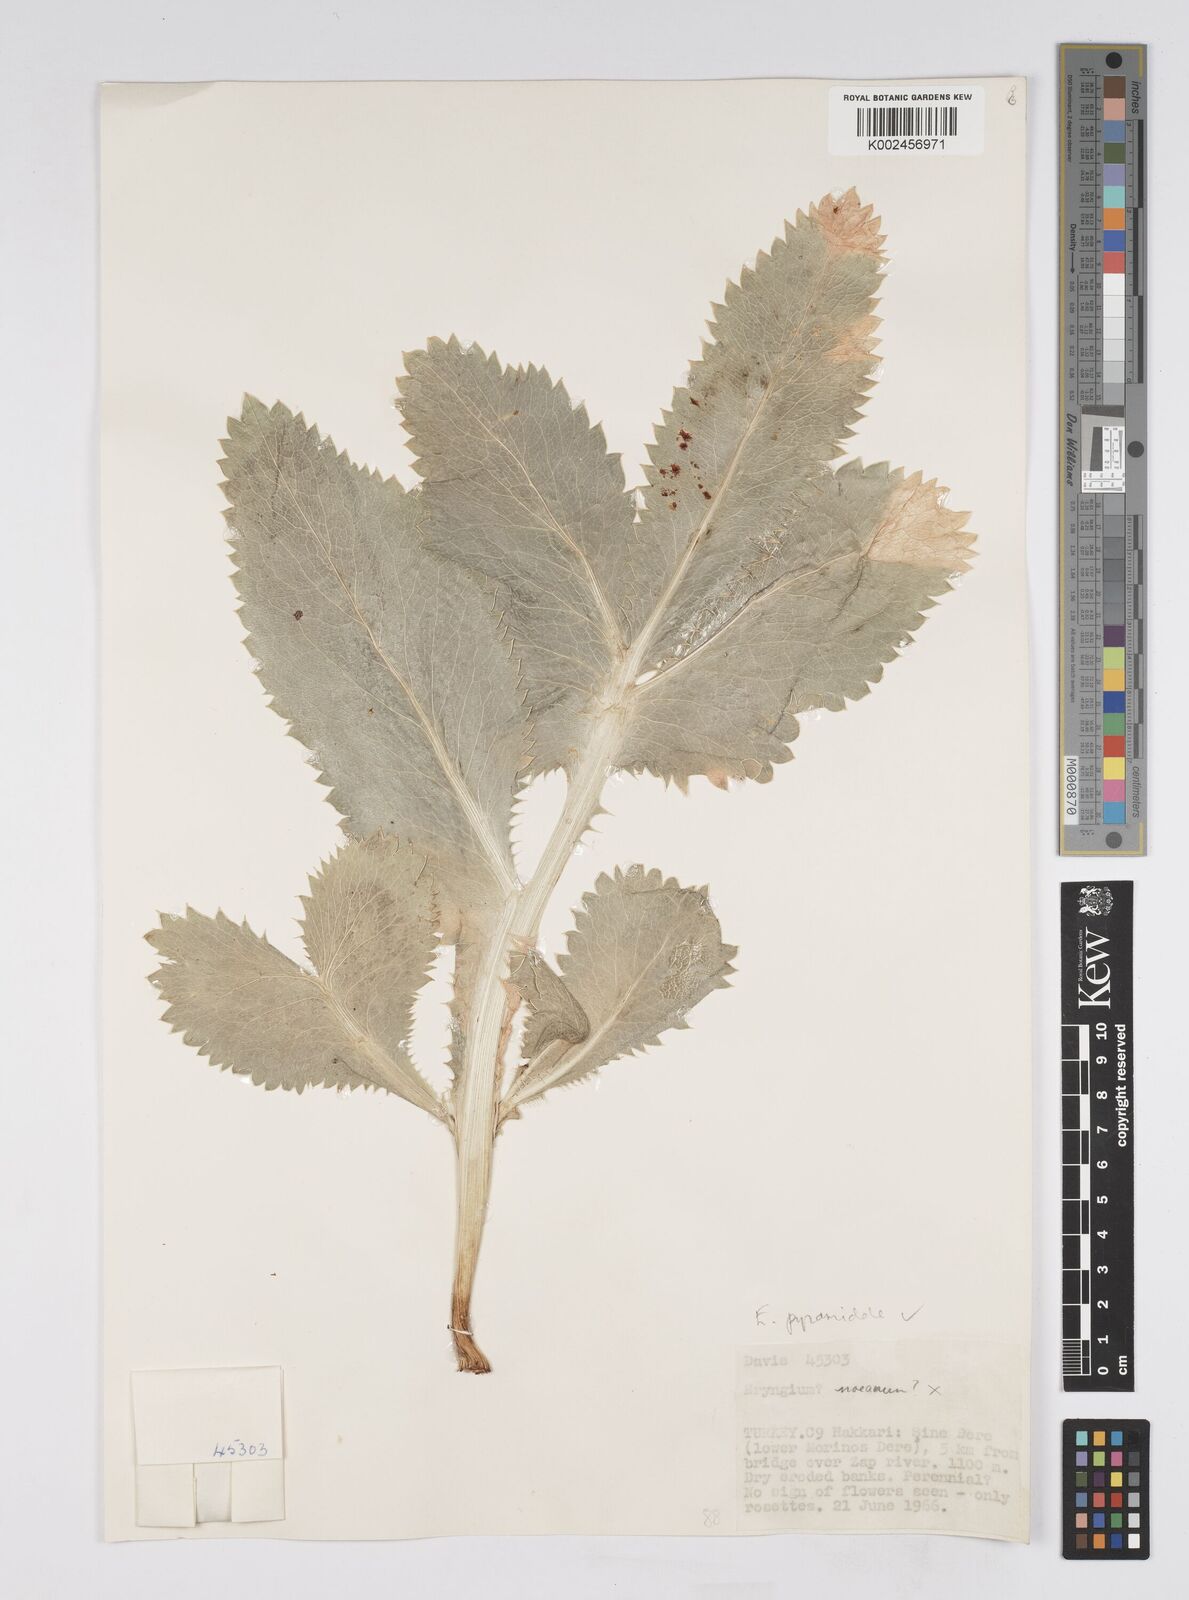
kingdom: Plantae
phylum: Tracheophyta
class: Magnoliopsida
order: Apiales
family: Apiaceae
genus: Eryngium
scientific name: Eryngium pyramidale
